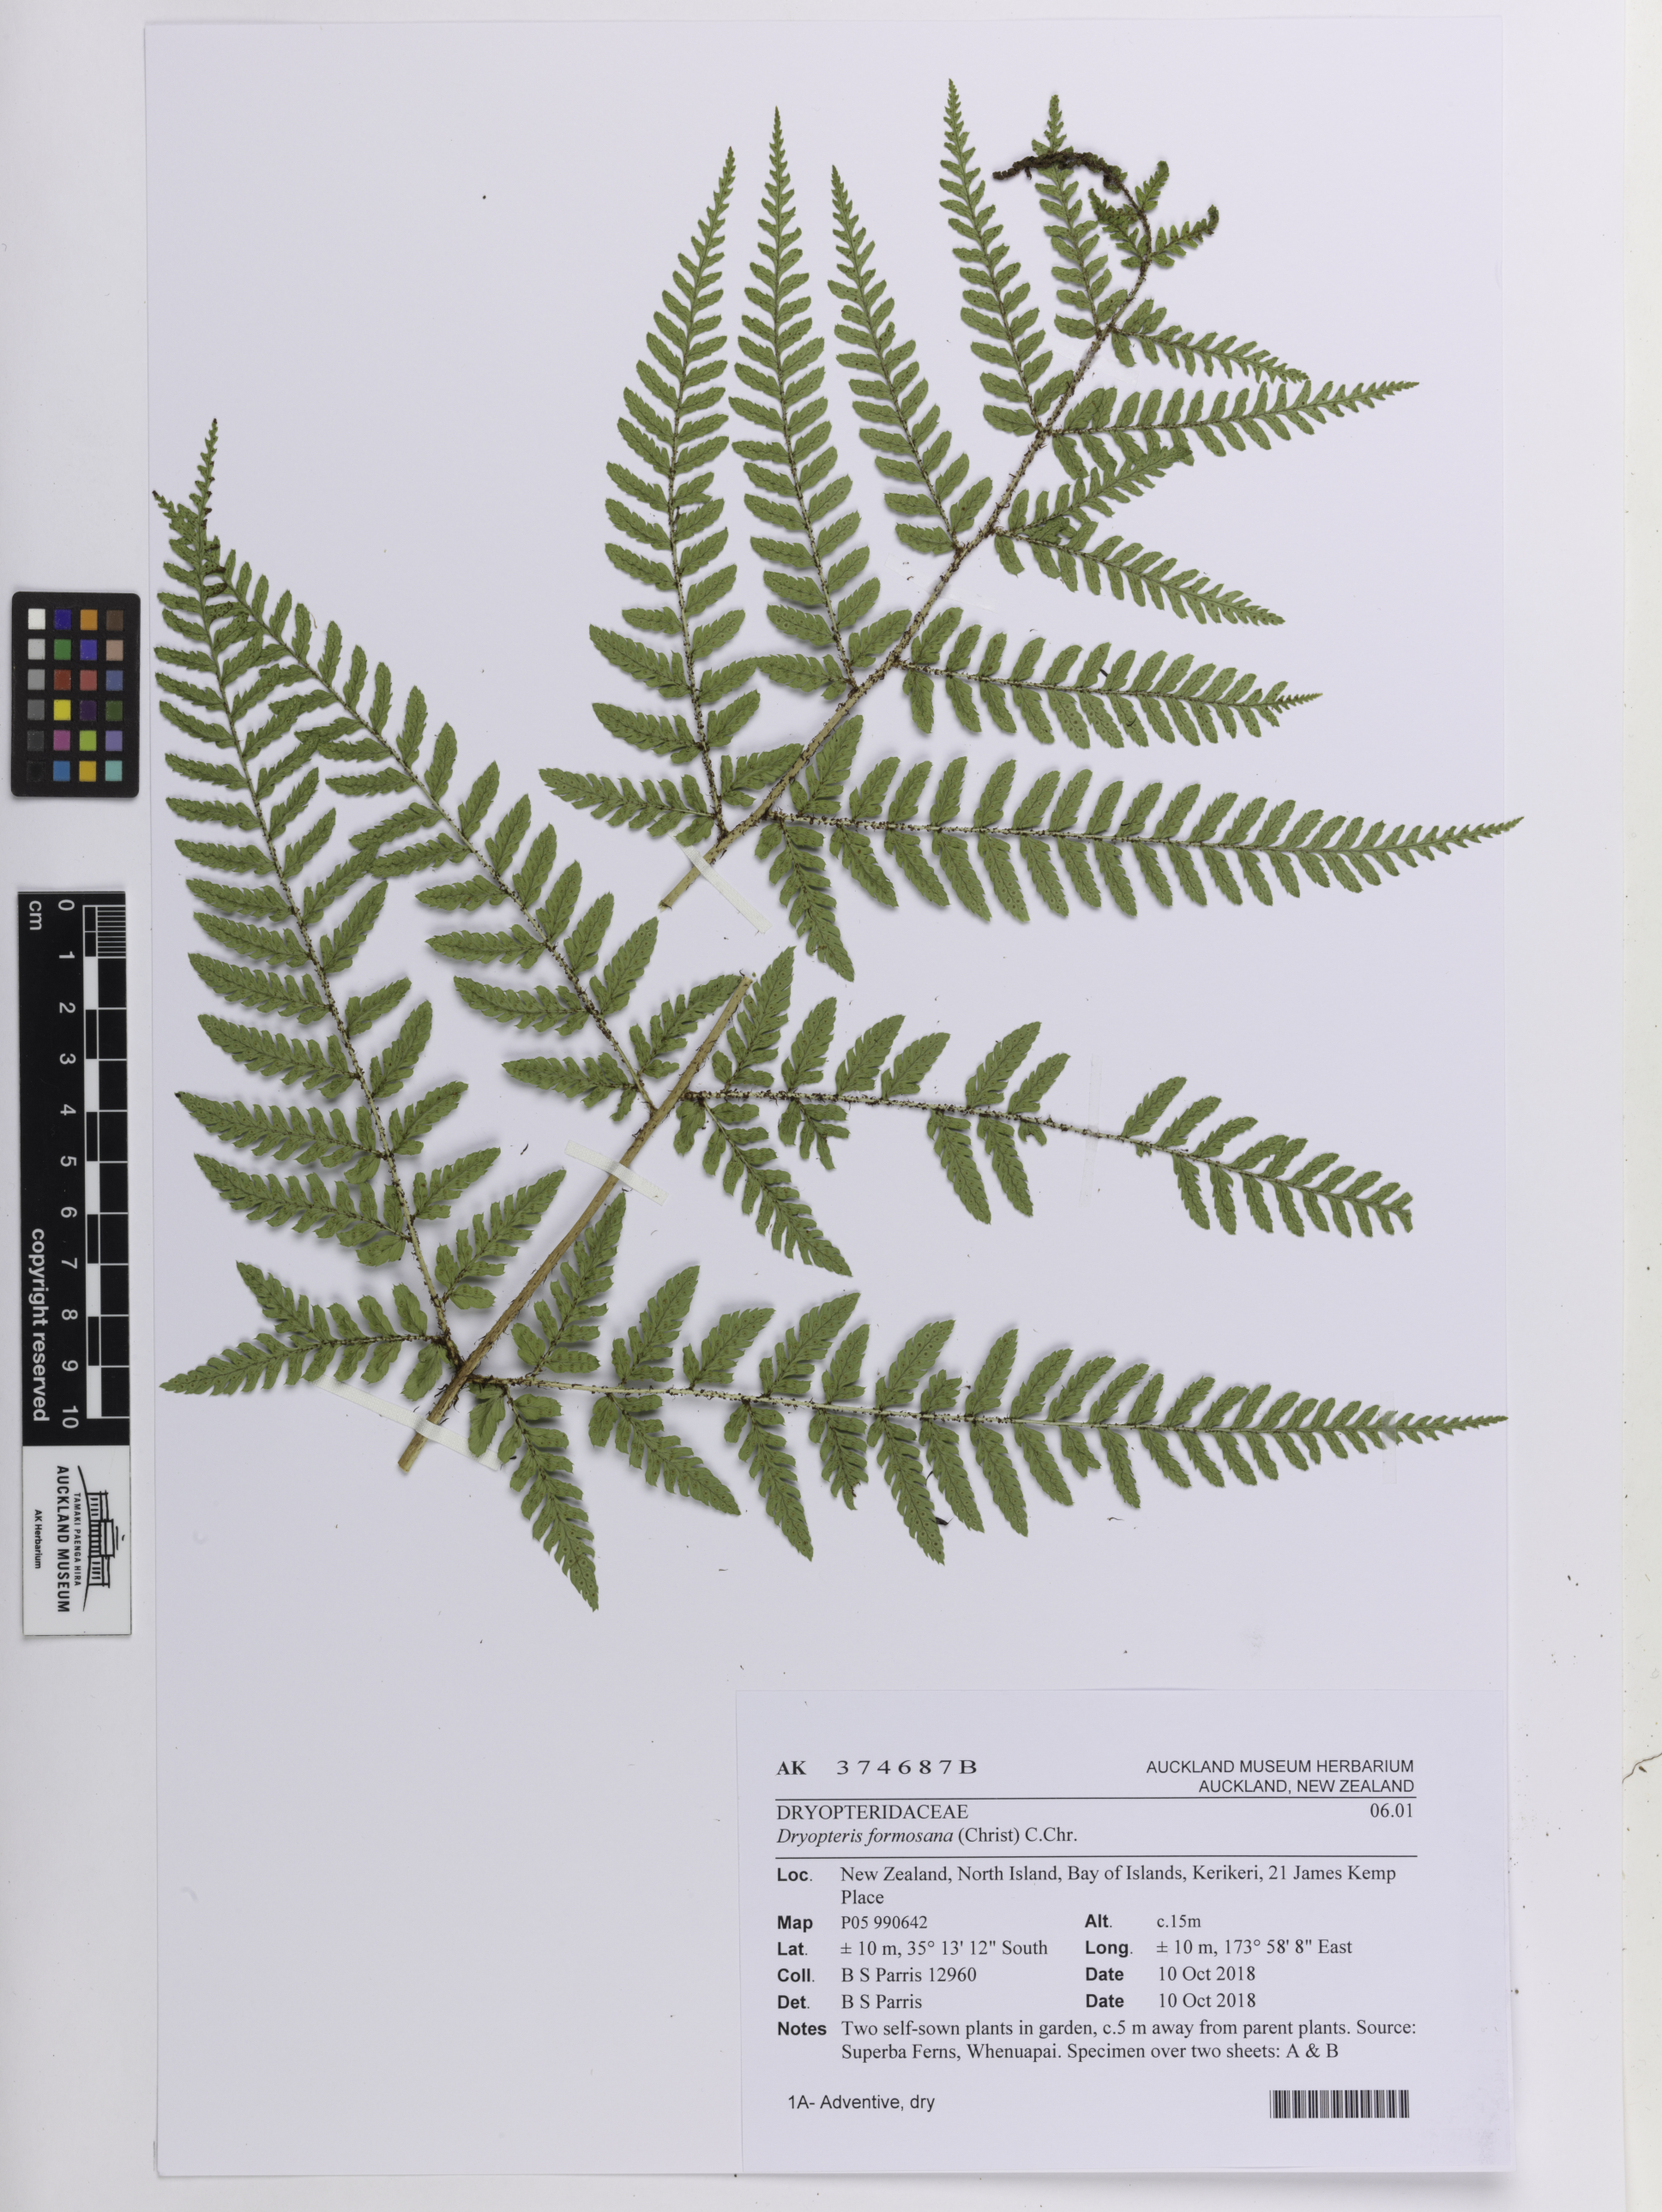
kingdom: Plantae
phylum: Tracheophyta
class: Polypodiopsida
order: Polypodiales
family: Dryopteridaceae
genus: Dryopteris
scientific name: Dryopteris formosana
